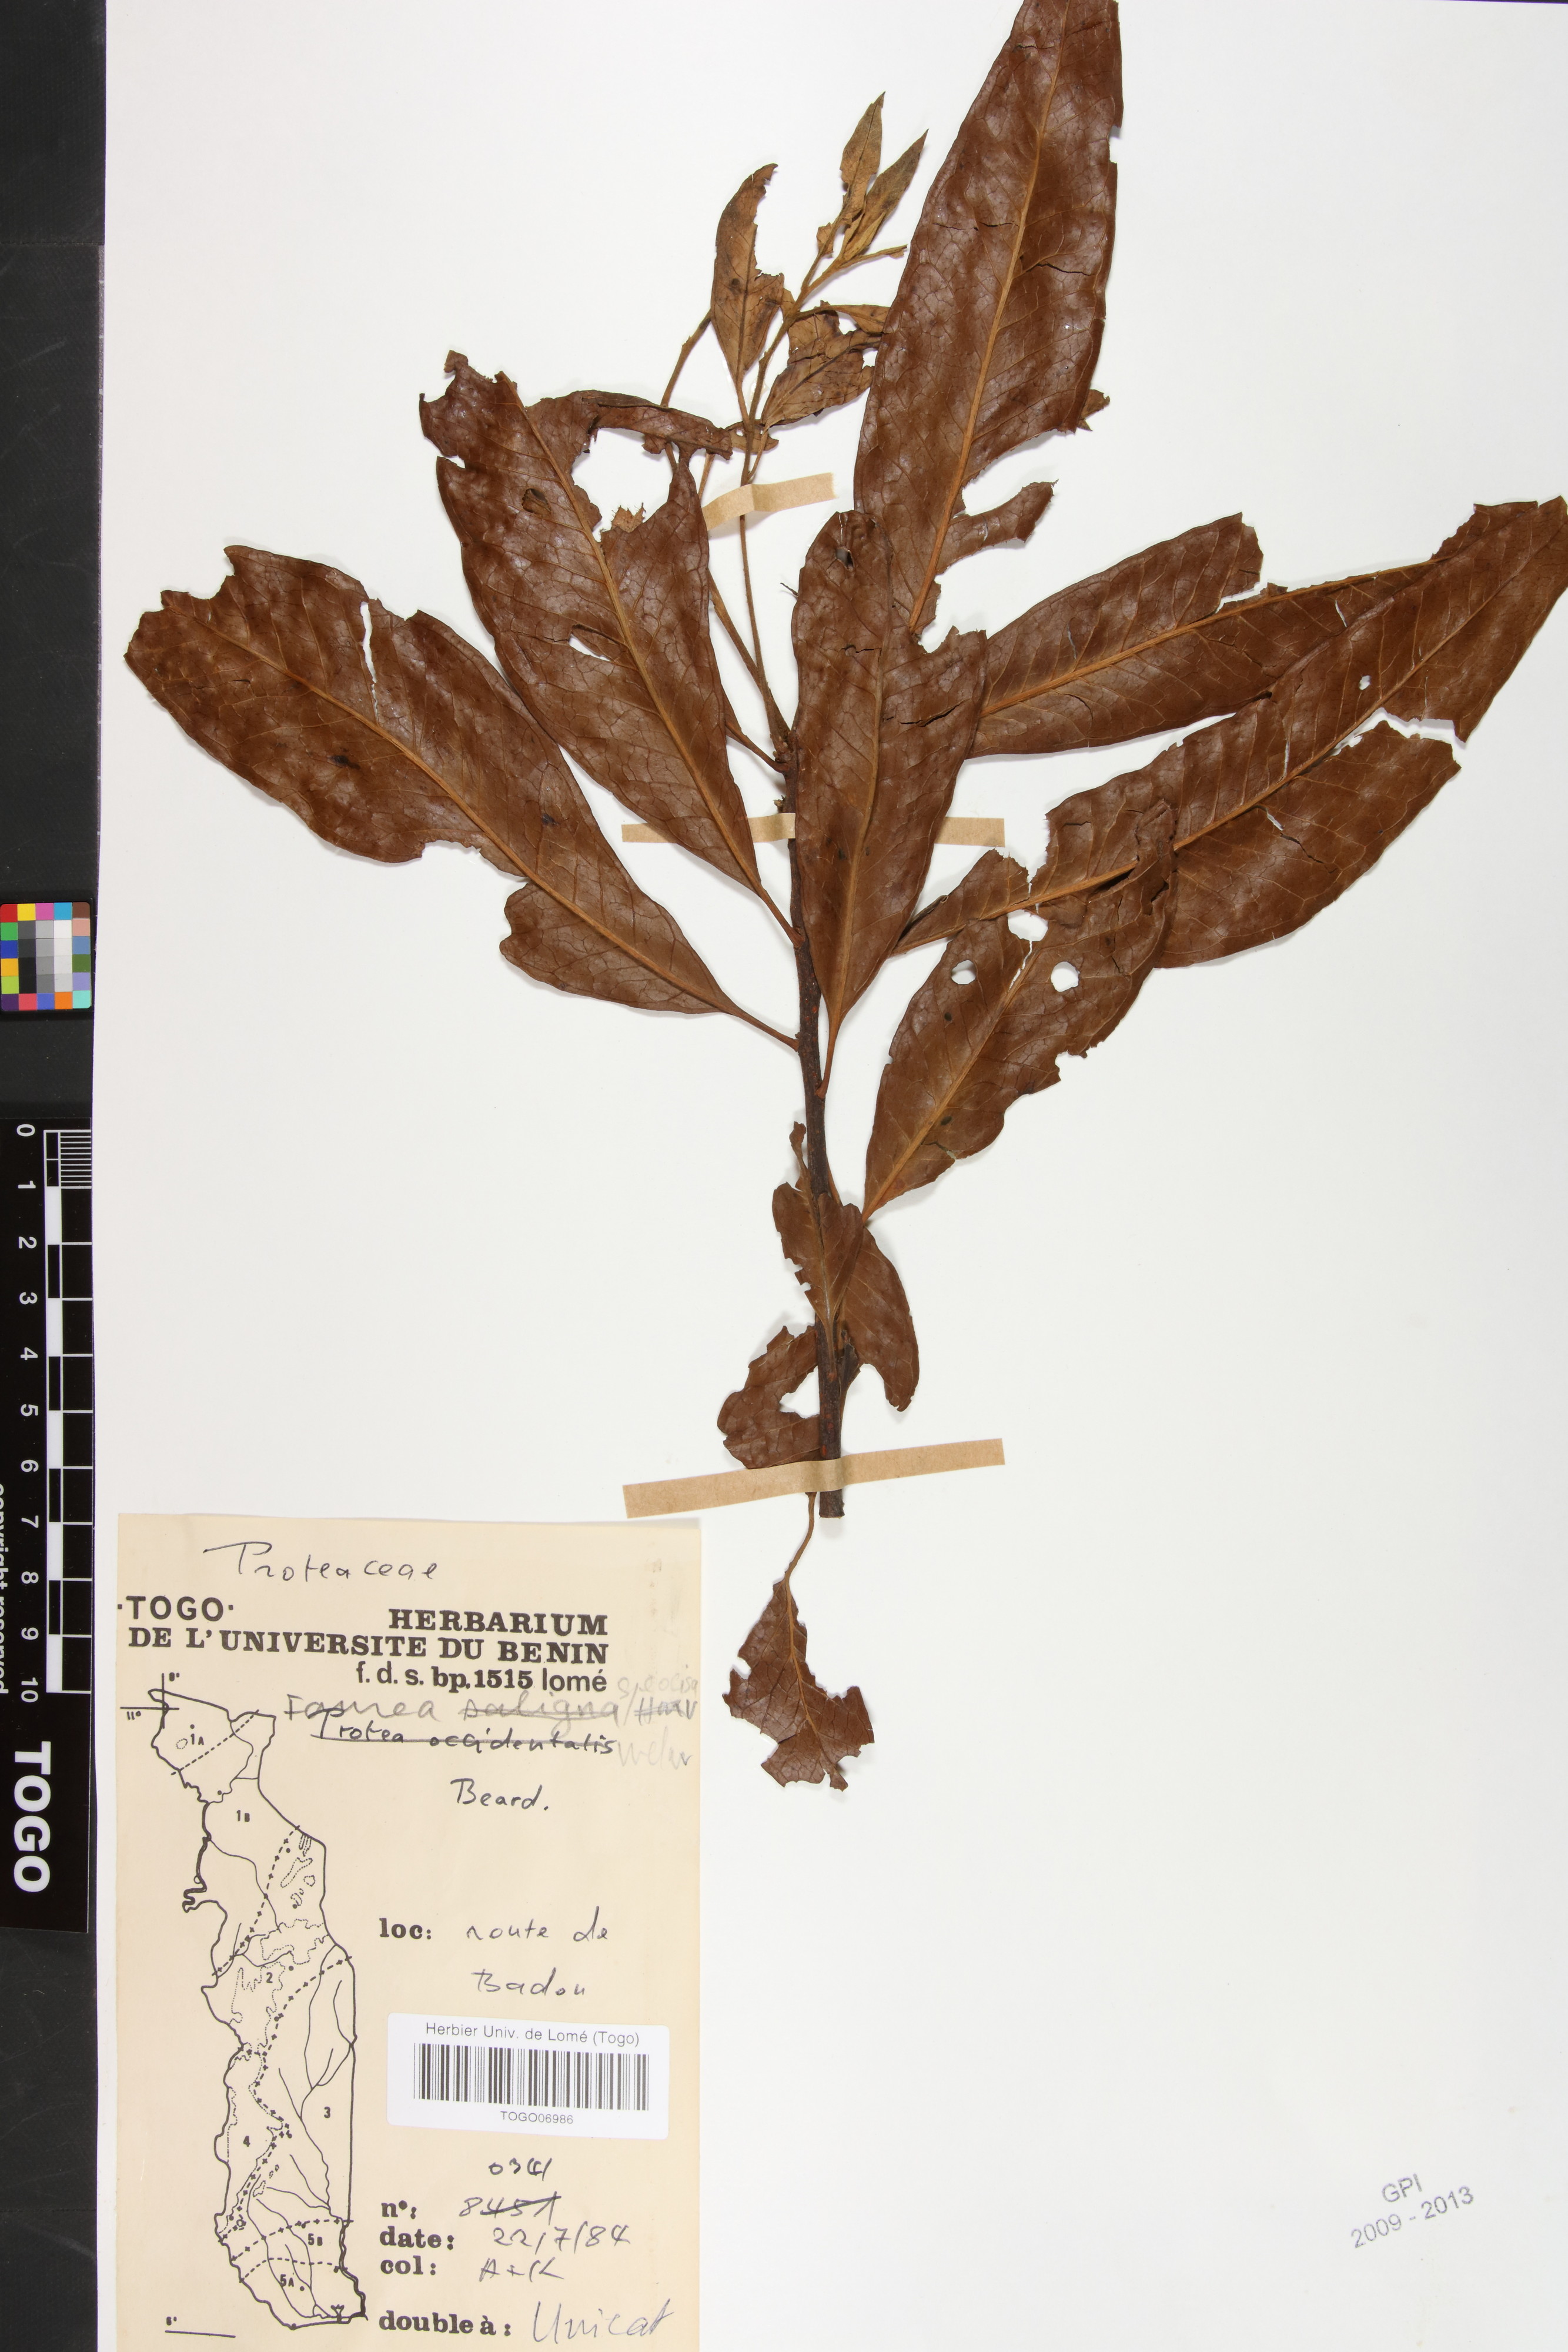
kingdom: Plantae
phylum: Tracheophyta
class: Magnoliopsida
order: Proteales
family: Proteaceae
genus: Faurea
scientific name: Faurea rochetiana
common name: Broad-leaved beech
